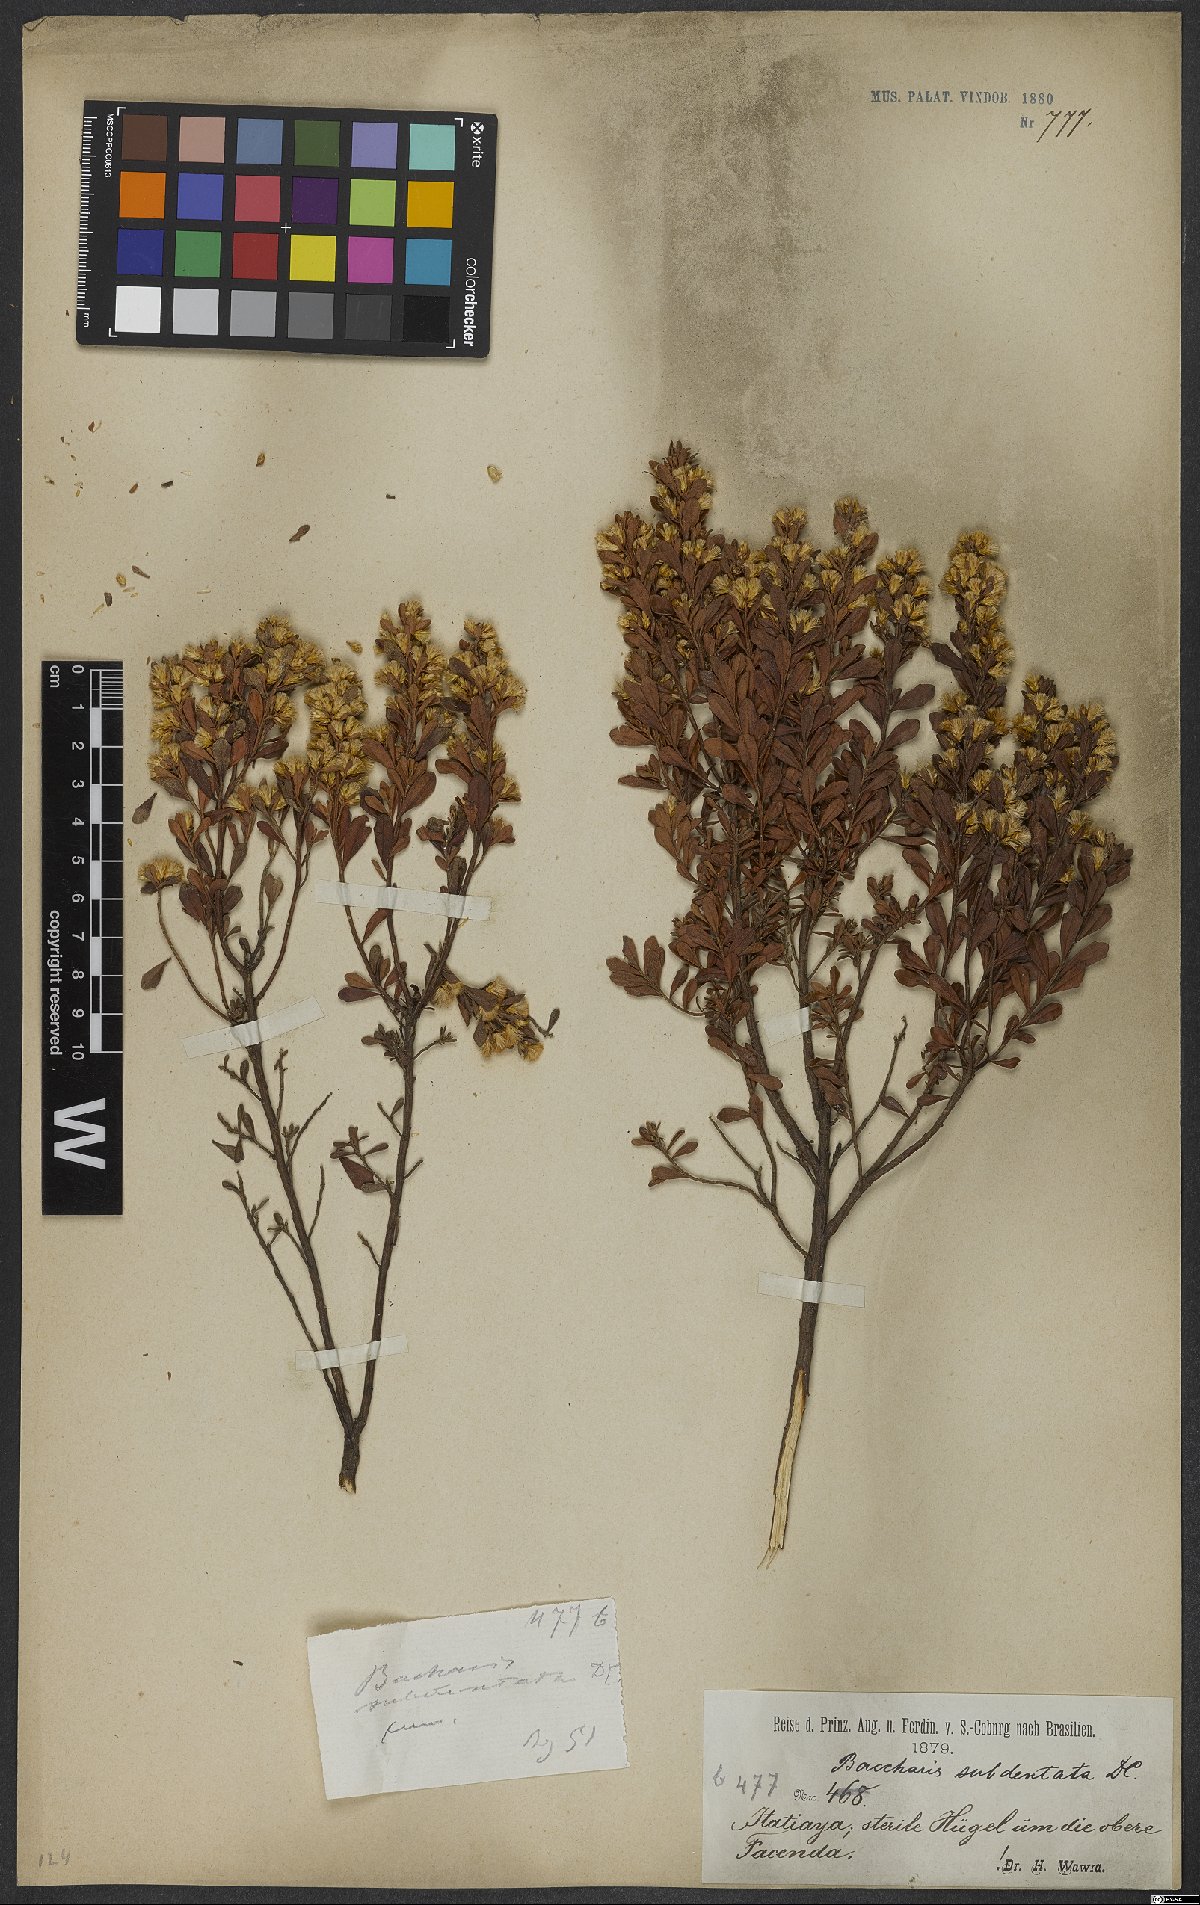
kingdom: Plantae
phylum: Tracheophyta
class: Magnoliopsida
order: Asterales
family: Asteraceae
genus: Baccharis
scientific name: Baccharis subdentata
